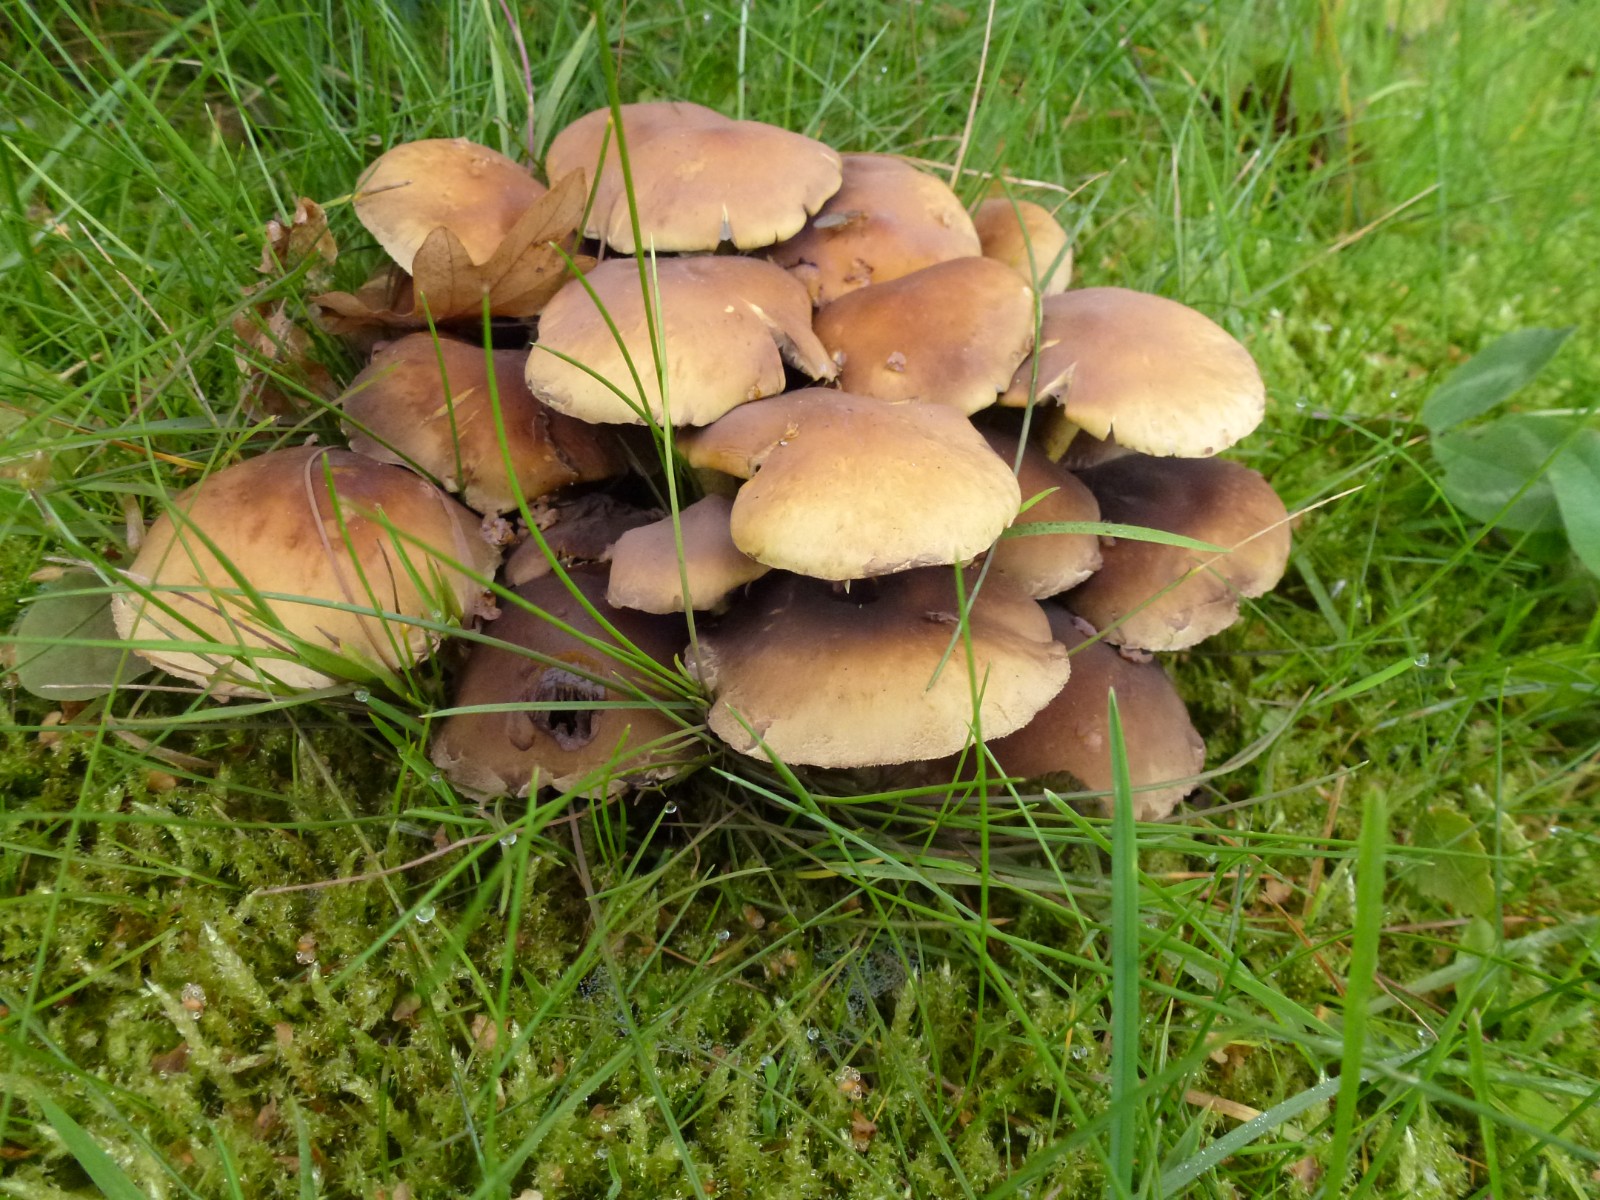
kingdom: Fungi
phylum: Basidiomycota
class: Agaricomycetes
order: Agaricales
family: Strophariaceae
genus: Hypholoma
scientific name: Hypholoma fasciculare
